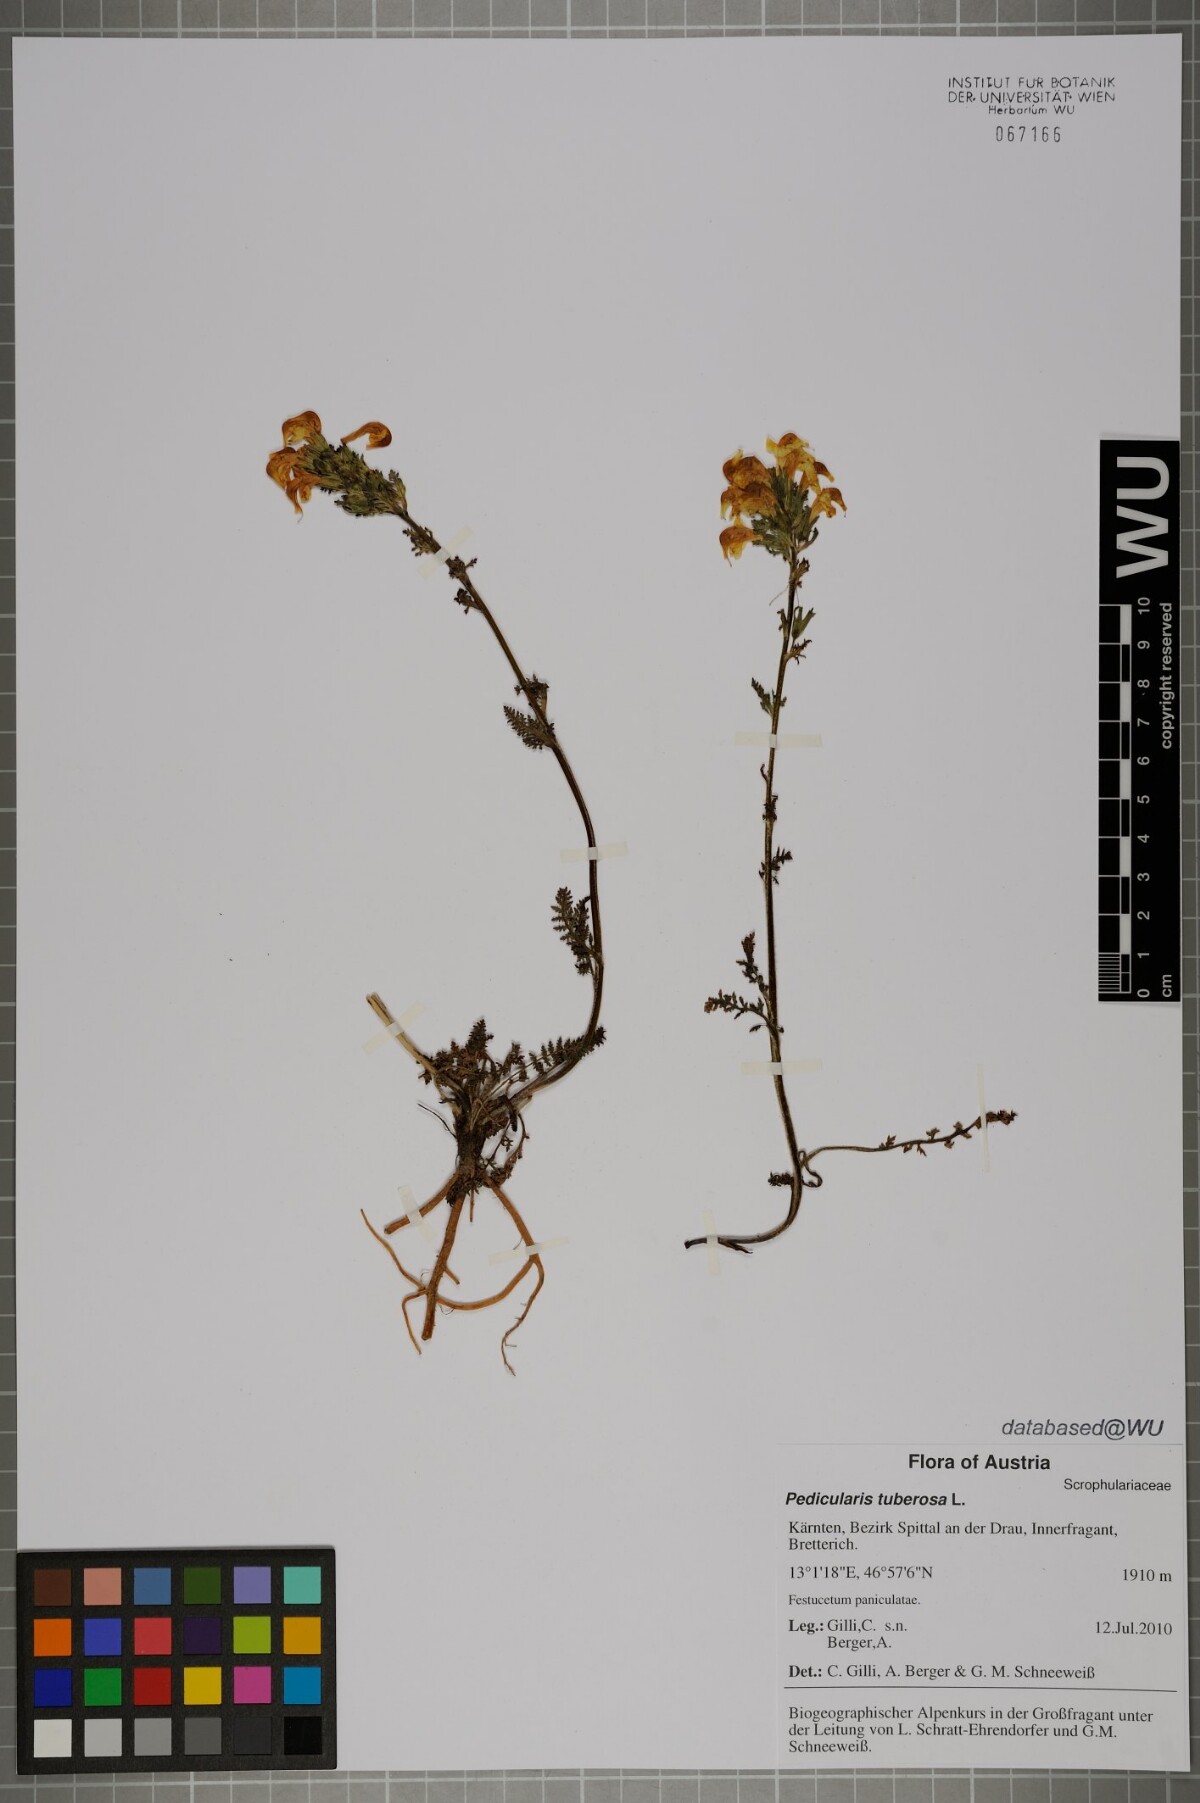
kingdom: Plantae
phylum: Tracheophyta
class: Magnoliopsida
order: Lamiales
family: Orobanchaceae
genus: Pedicularis
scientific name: Pedicularis tuberosa
